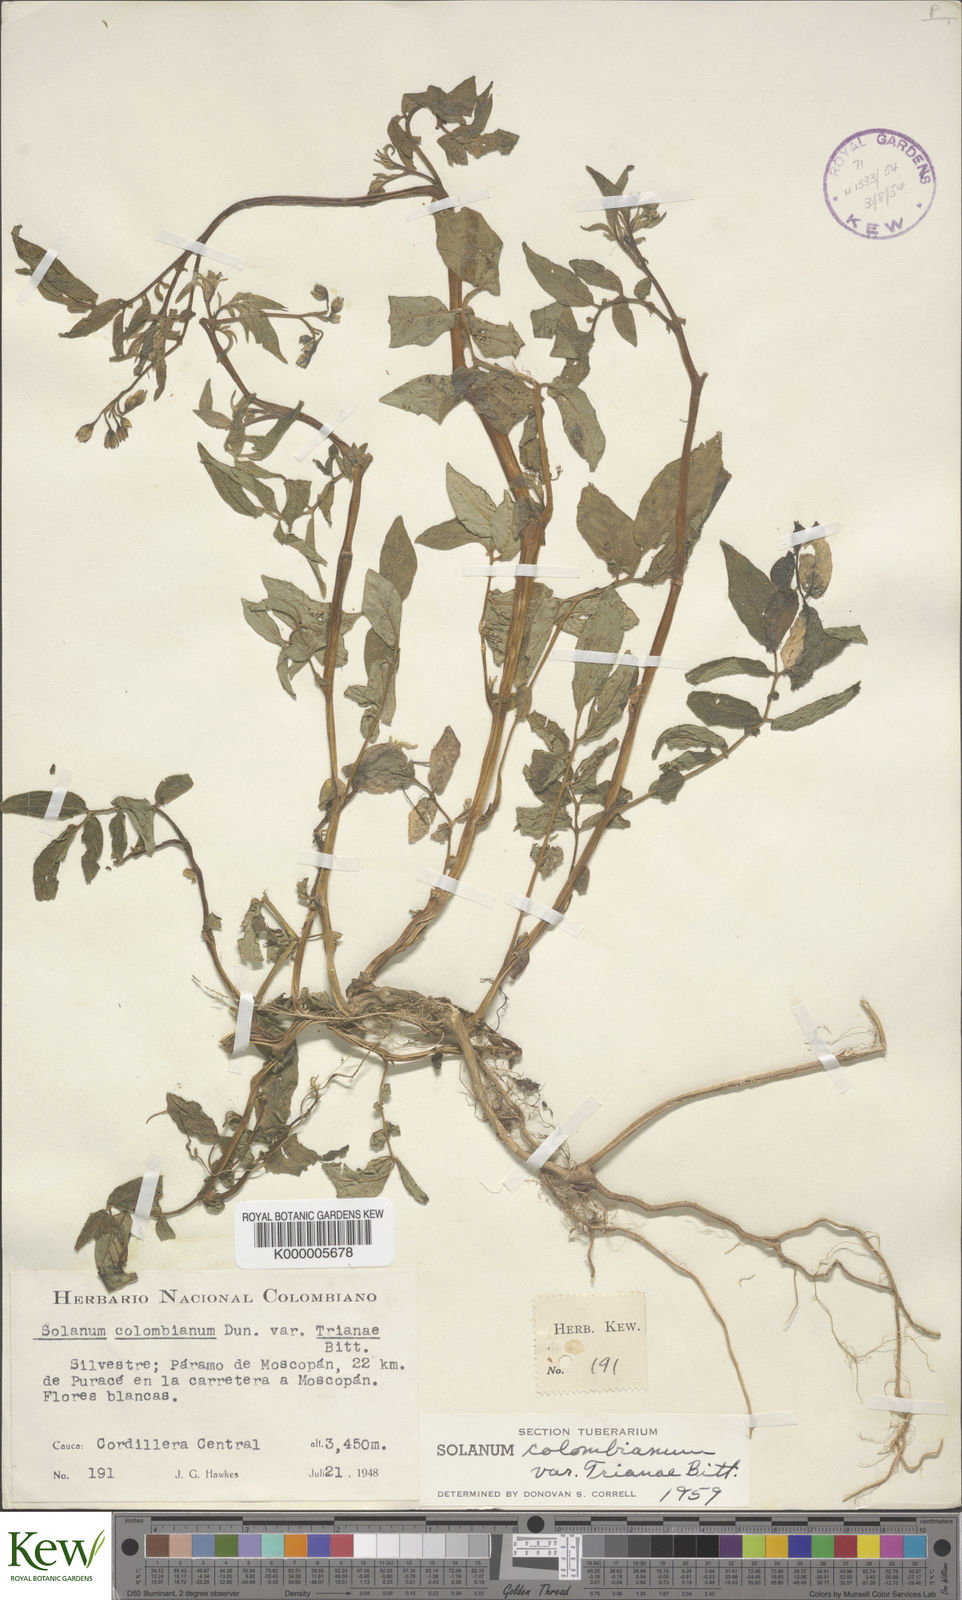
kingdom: Plantae
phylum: Tracheophyta
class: Magnoliopsida
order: Solanales
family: Solanaceae
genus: Solanum
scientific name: Solanum colombianum
